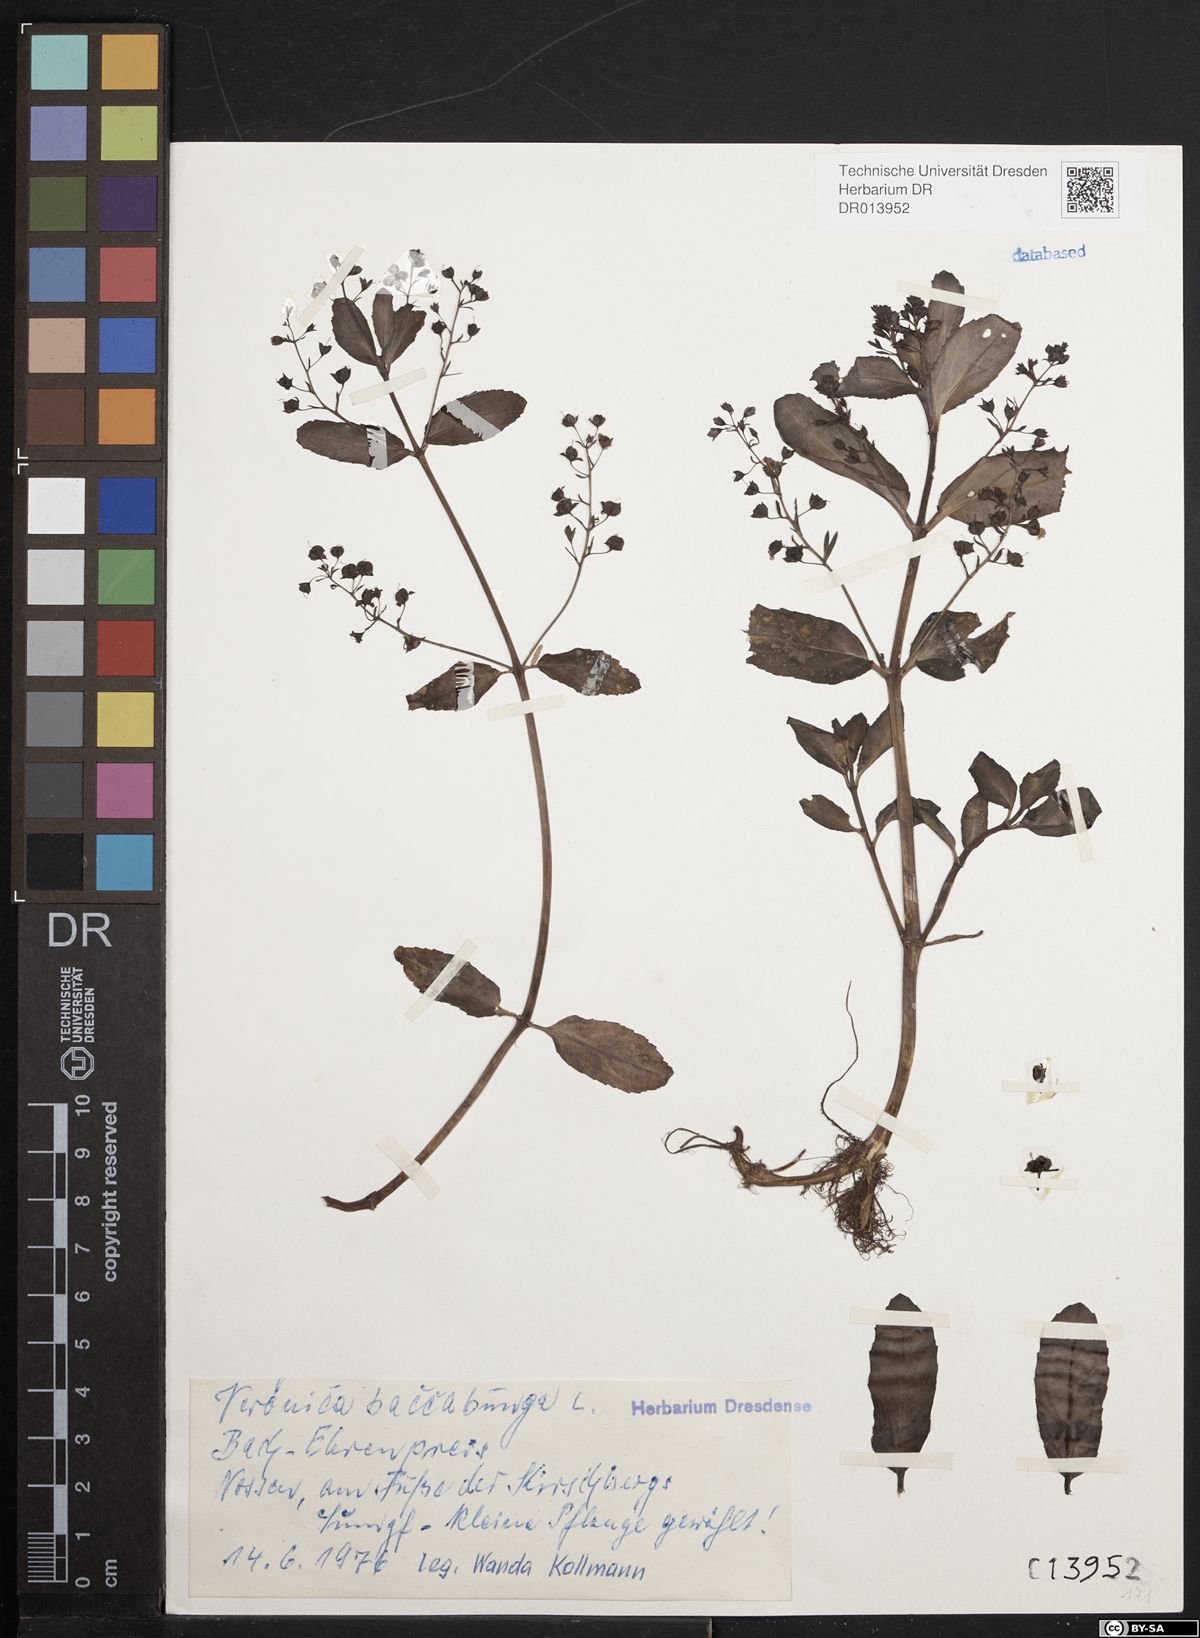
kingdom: Plantae
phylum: Tracheophyta
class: Magnoliopsida
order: Lamiales
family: Plantaginaceae
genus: Veronica
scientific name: Veronica beccabunga
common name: Brooklime
